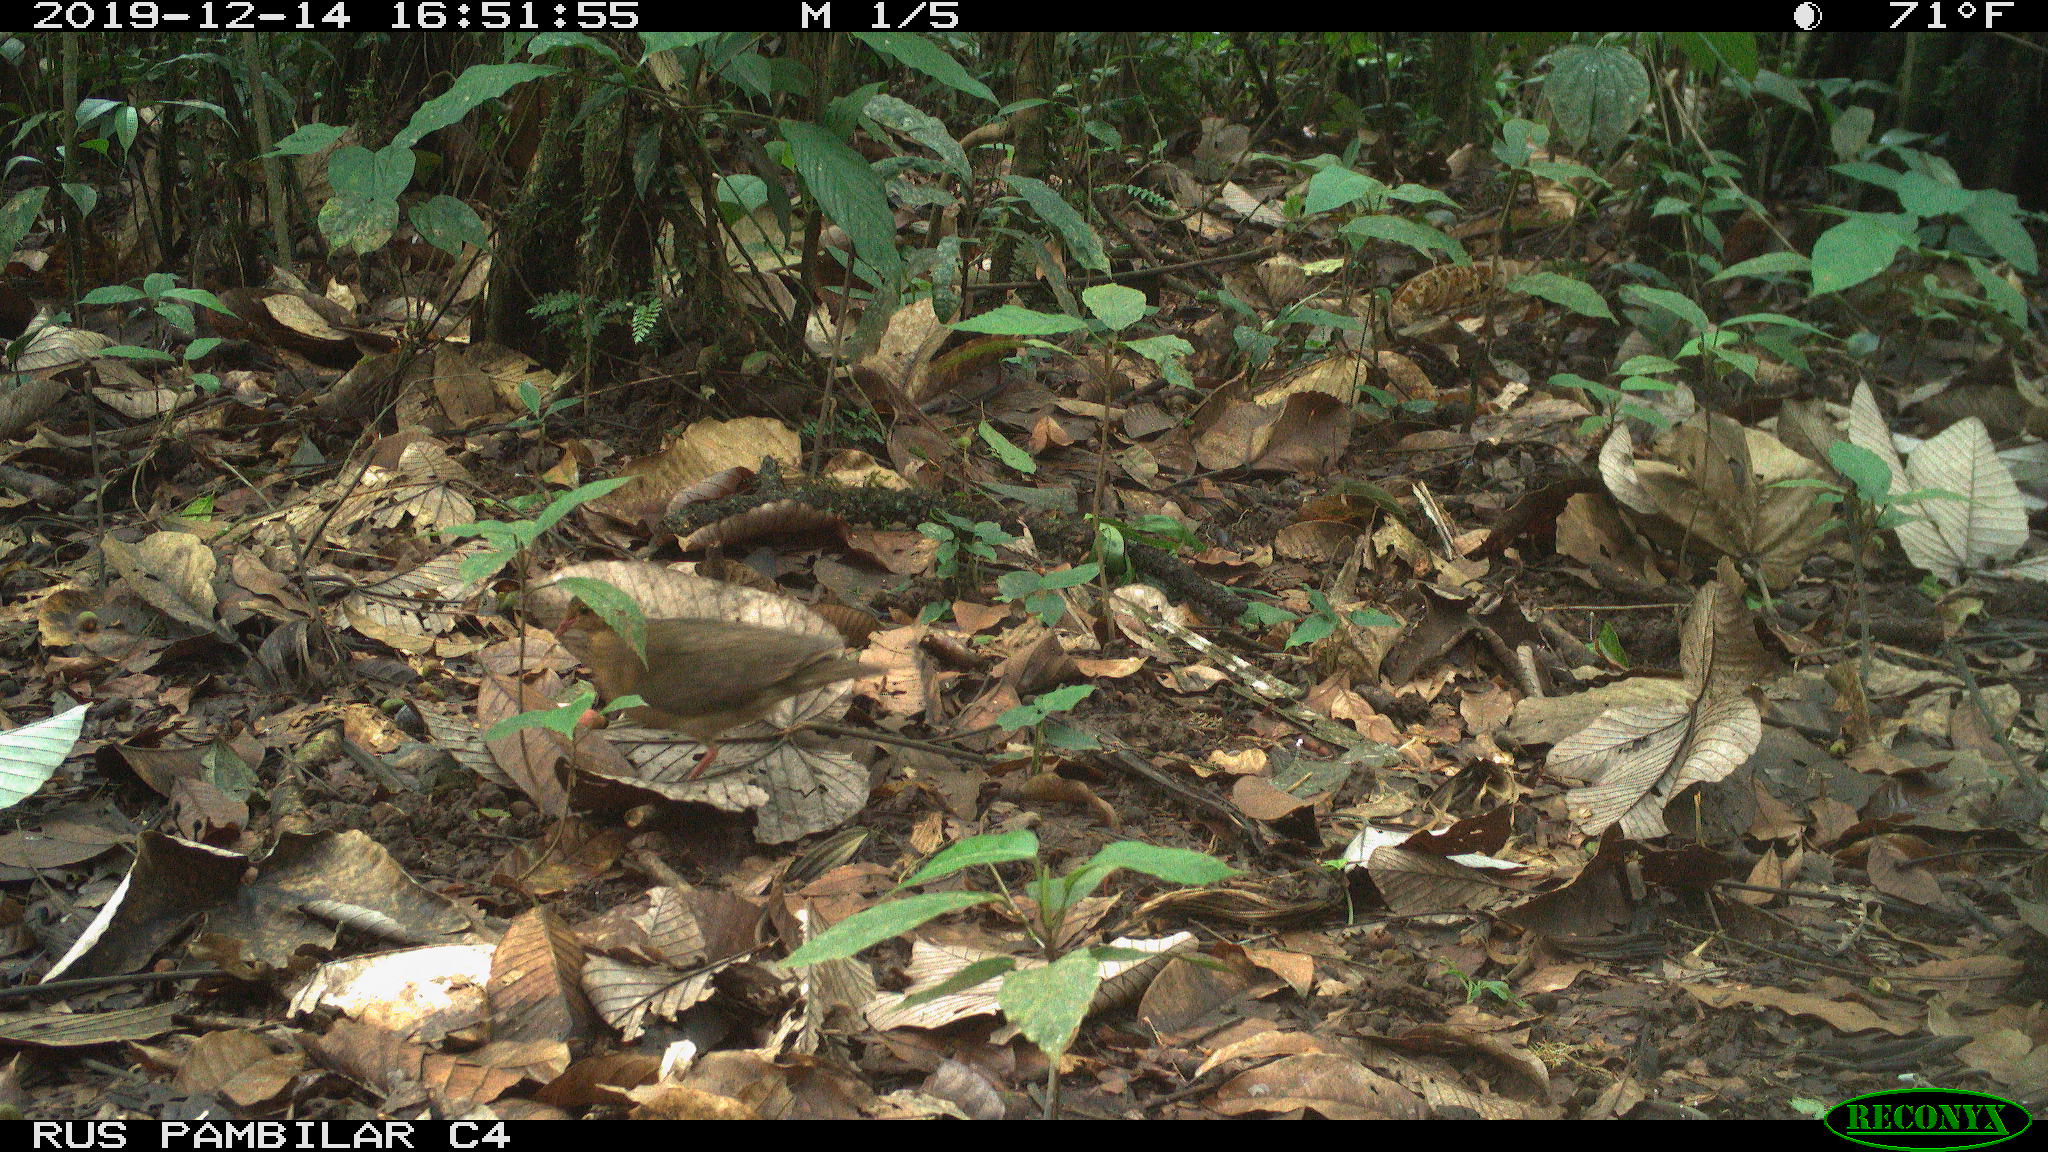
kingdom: Animalia
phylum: Chordata
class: Aves
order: Columbiformes
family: Columbidae
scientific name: Columbidae
